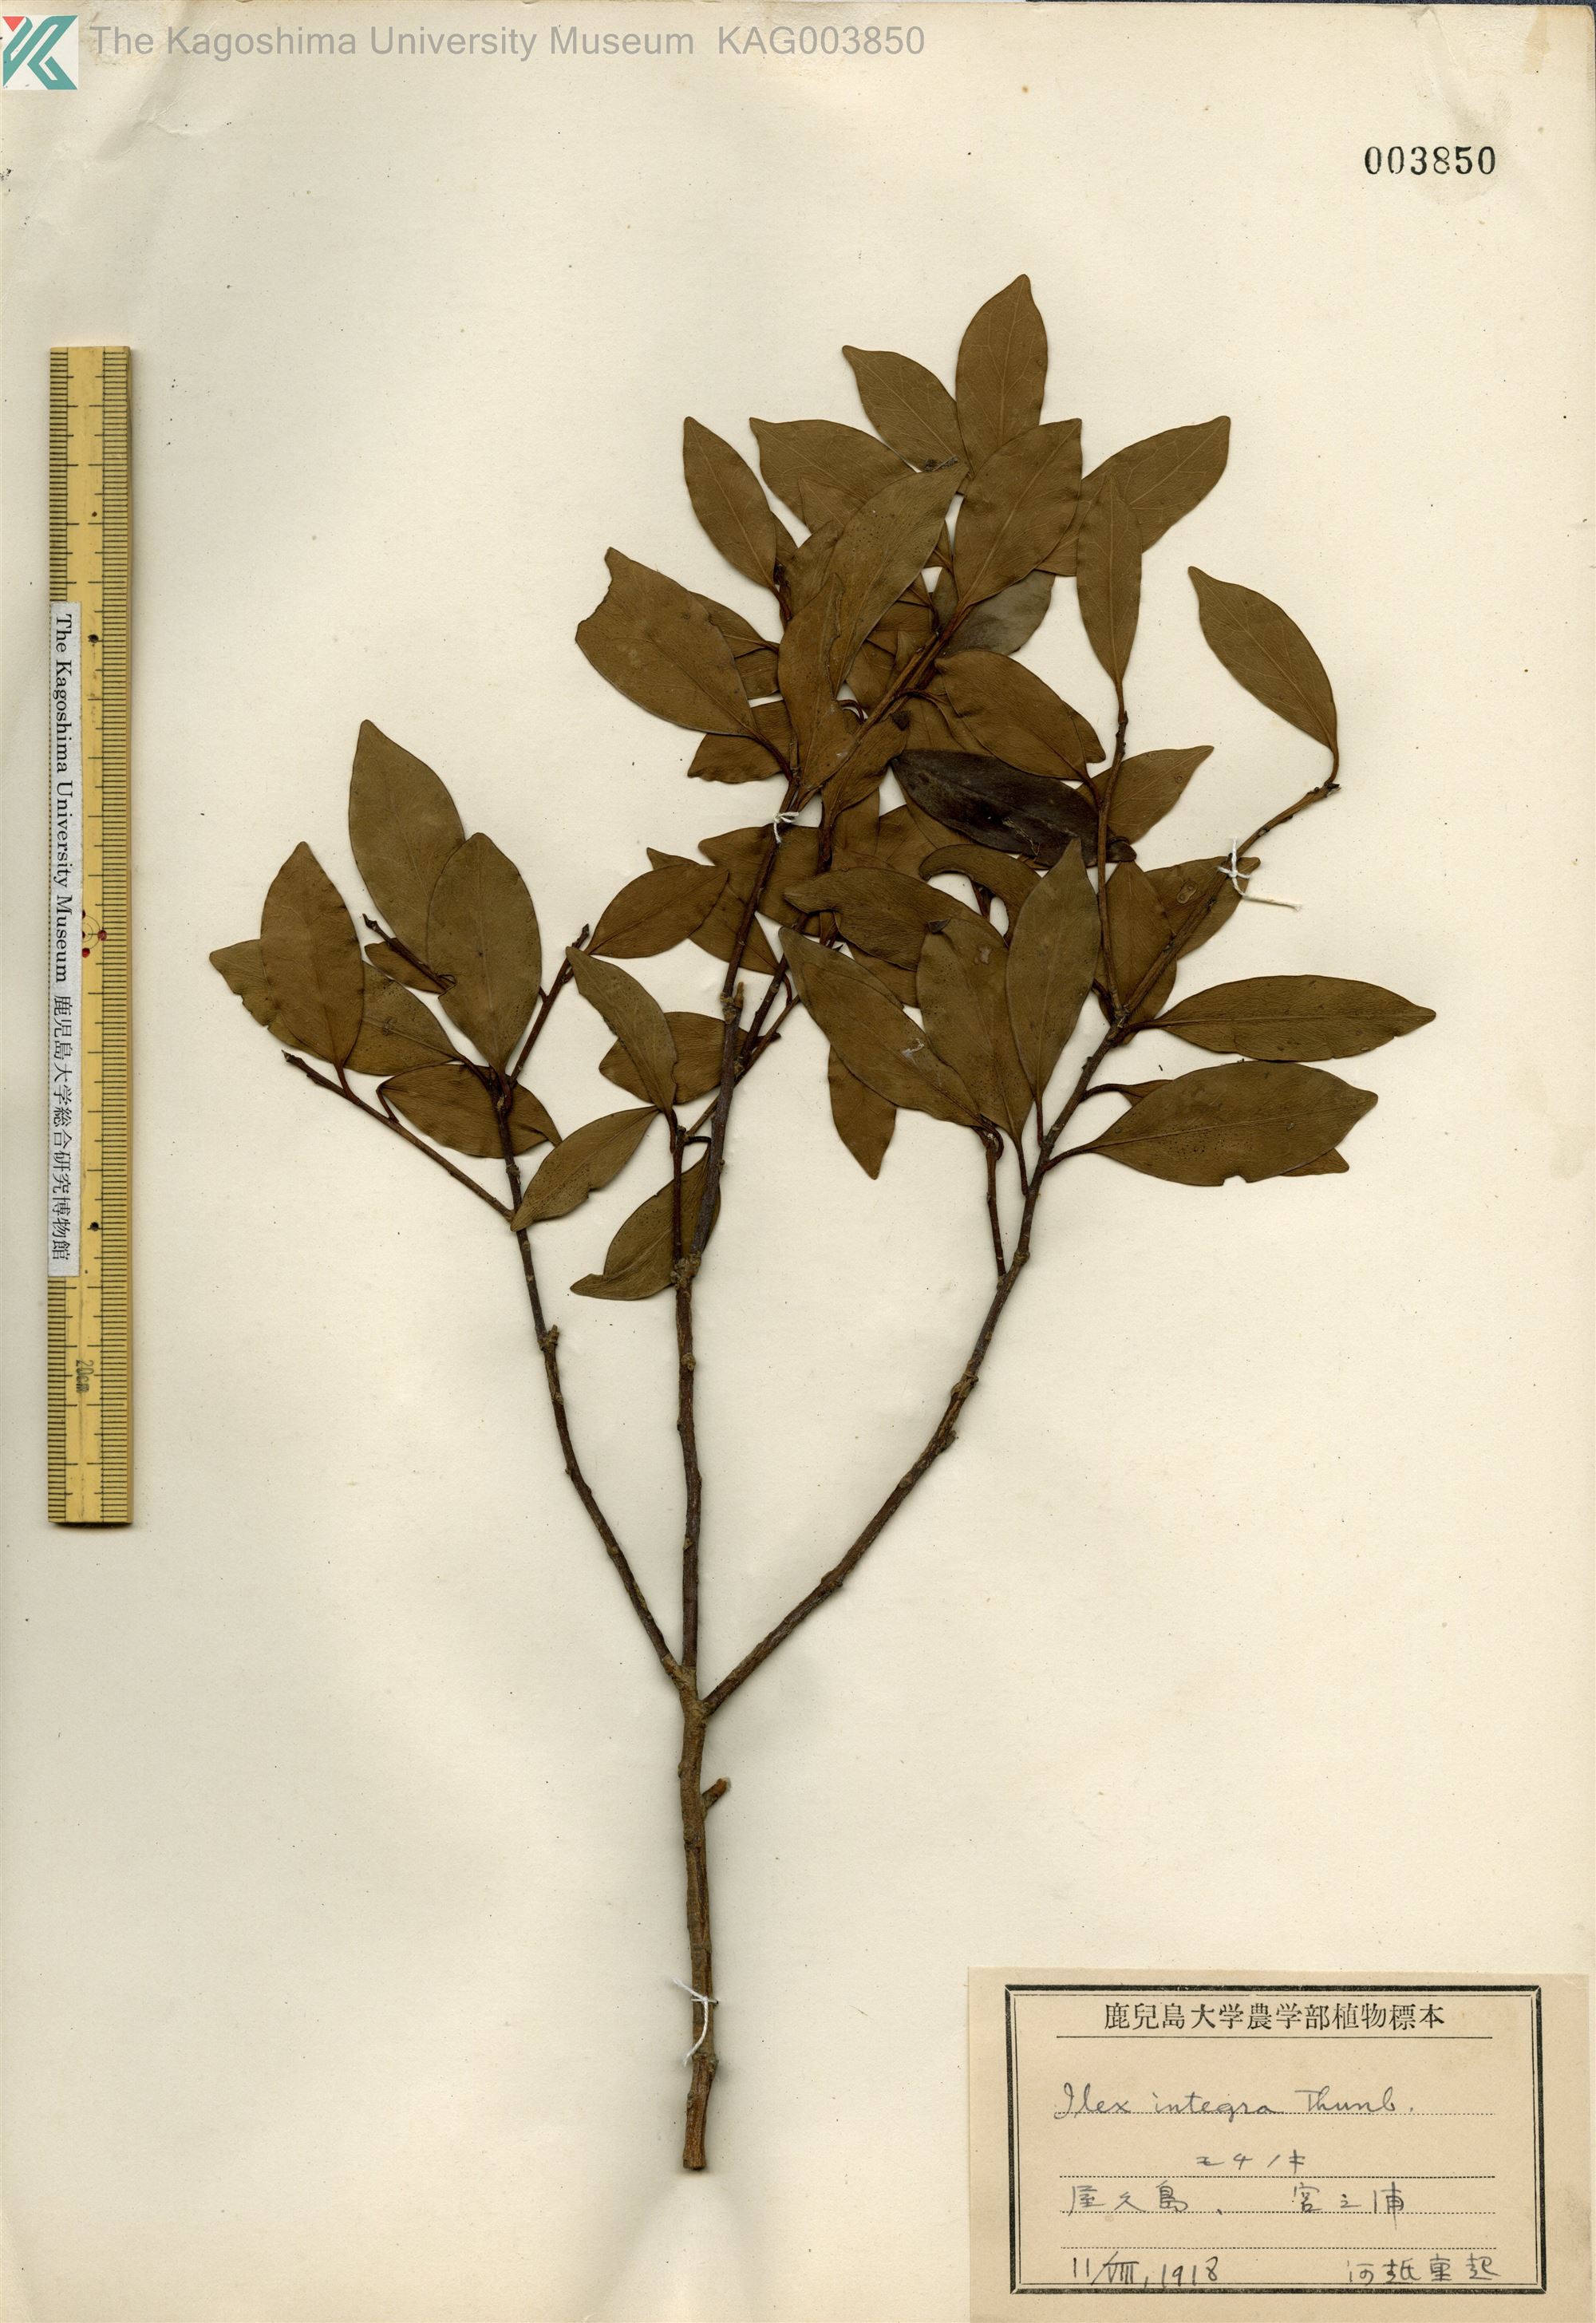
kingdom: Plantae
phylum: Tracheophyta
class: Magnoliopsida
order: Aquifoliales
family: Aquifoliaceae
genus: Ilex
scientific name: Ilex integra
